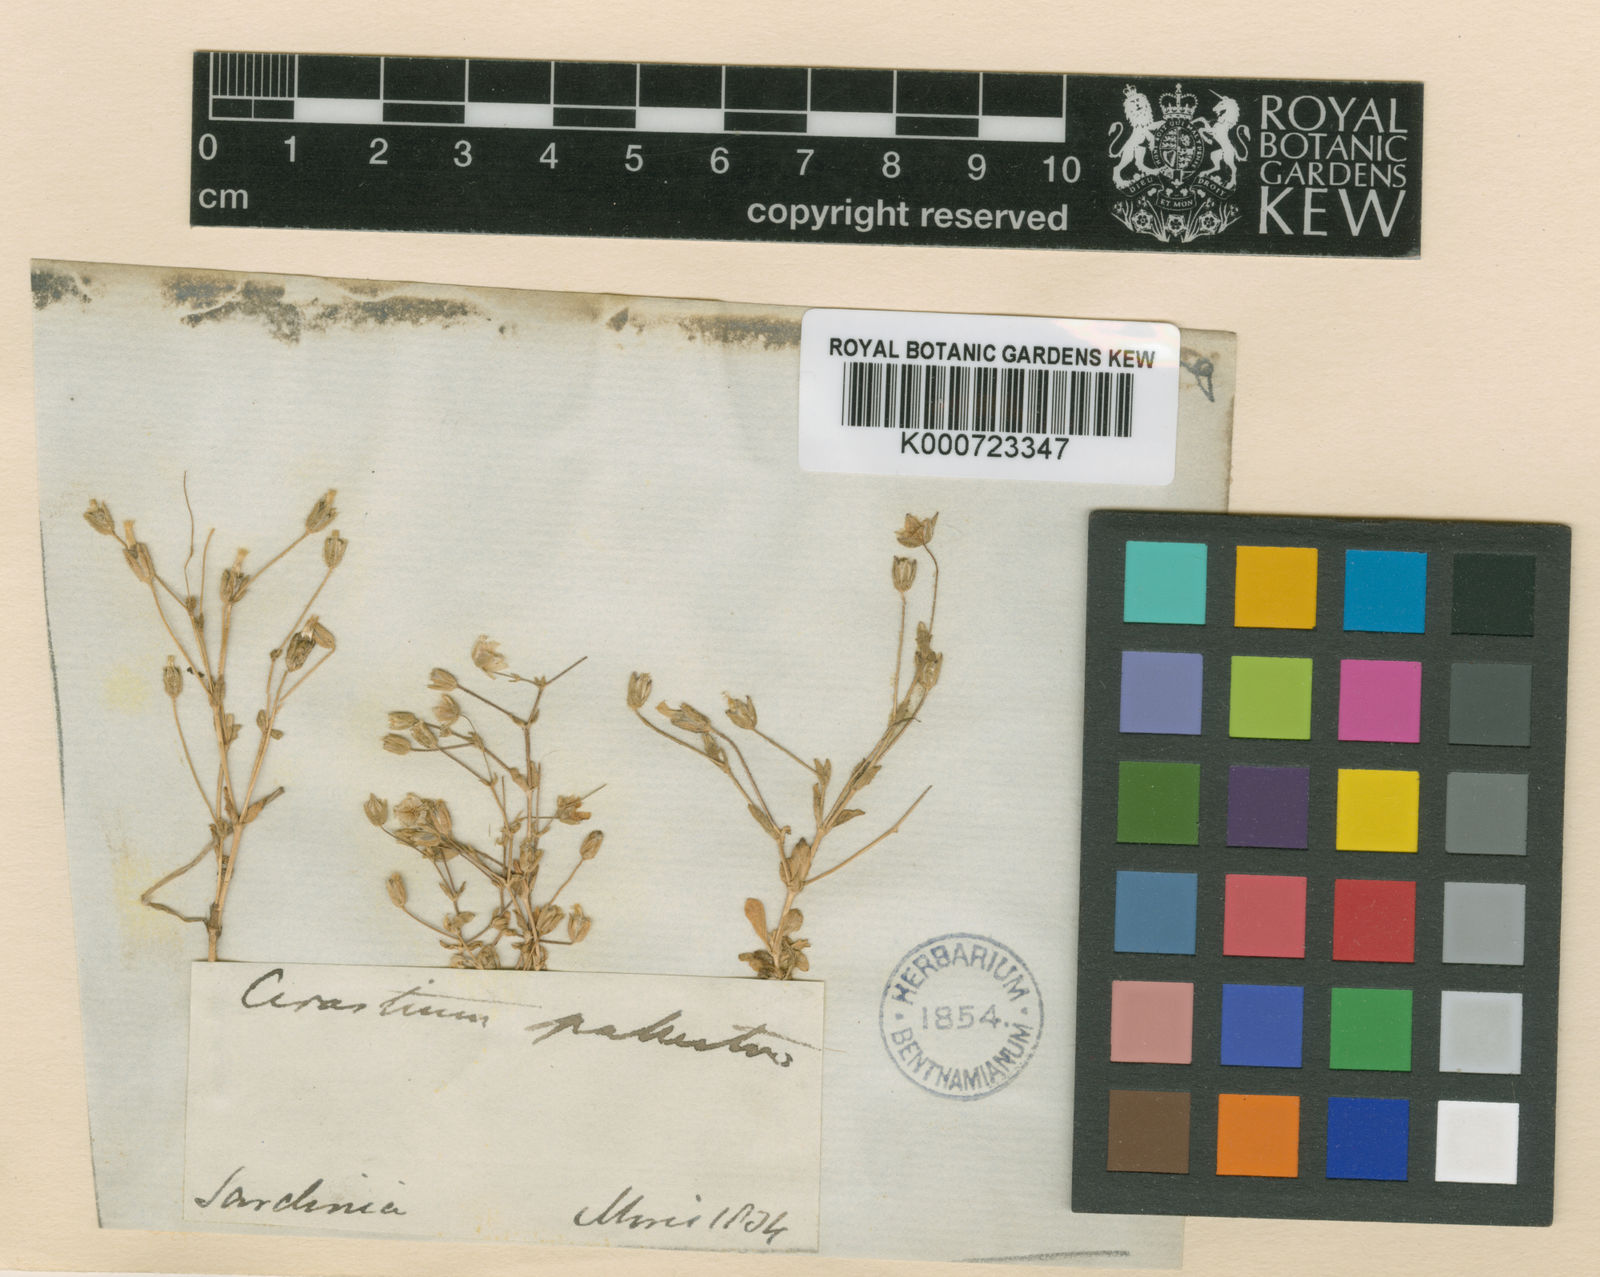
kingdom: Plantae
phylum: Tracheophyta
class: Magnoliopsida
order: Caryophyllales
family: Caryophyllaceae
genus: Cerastium
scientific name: Cerastium ligusticum
